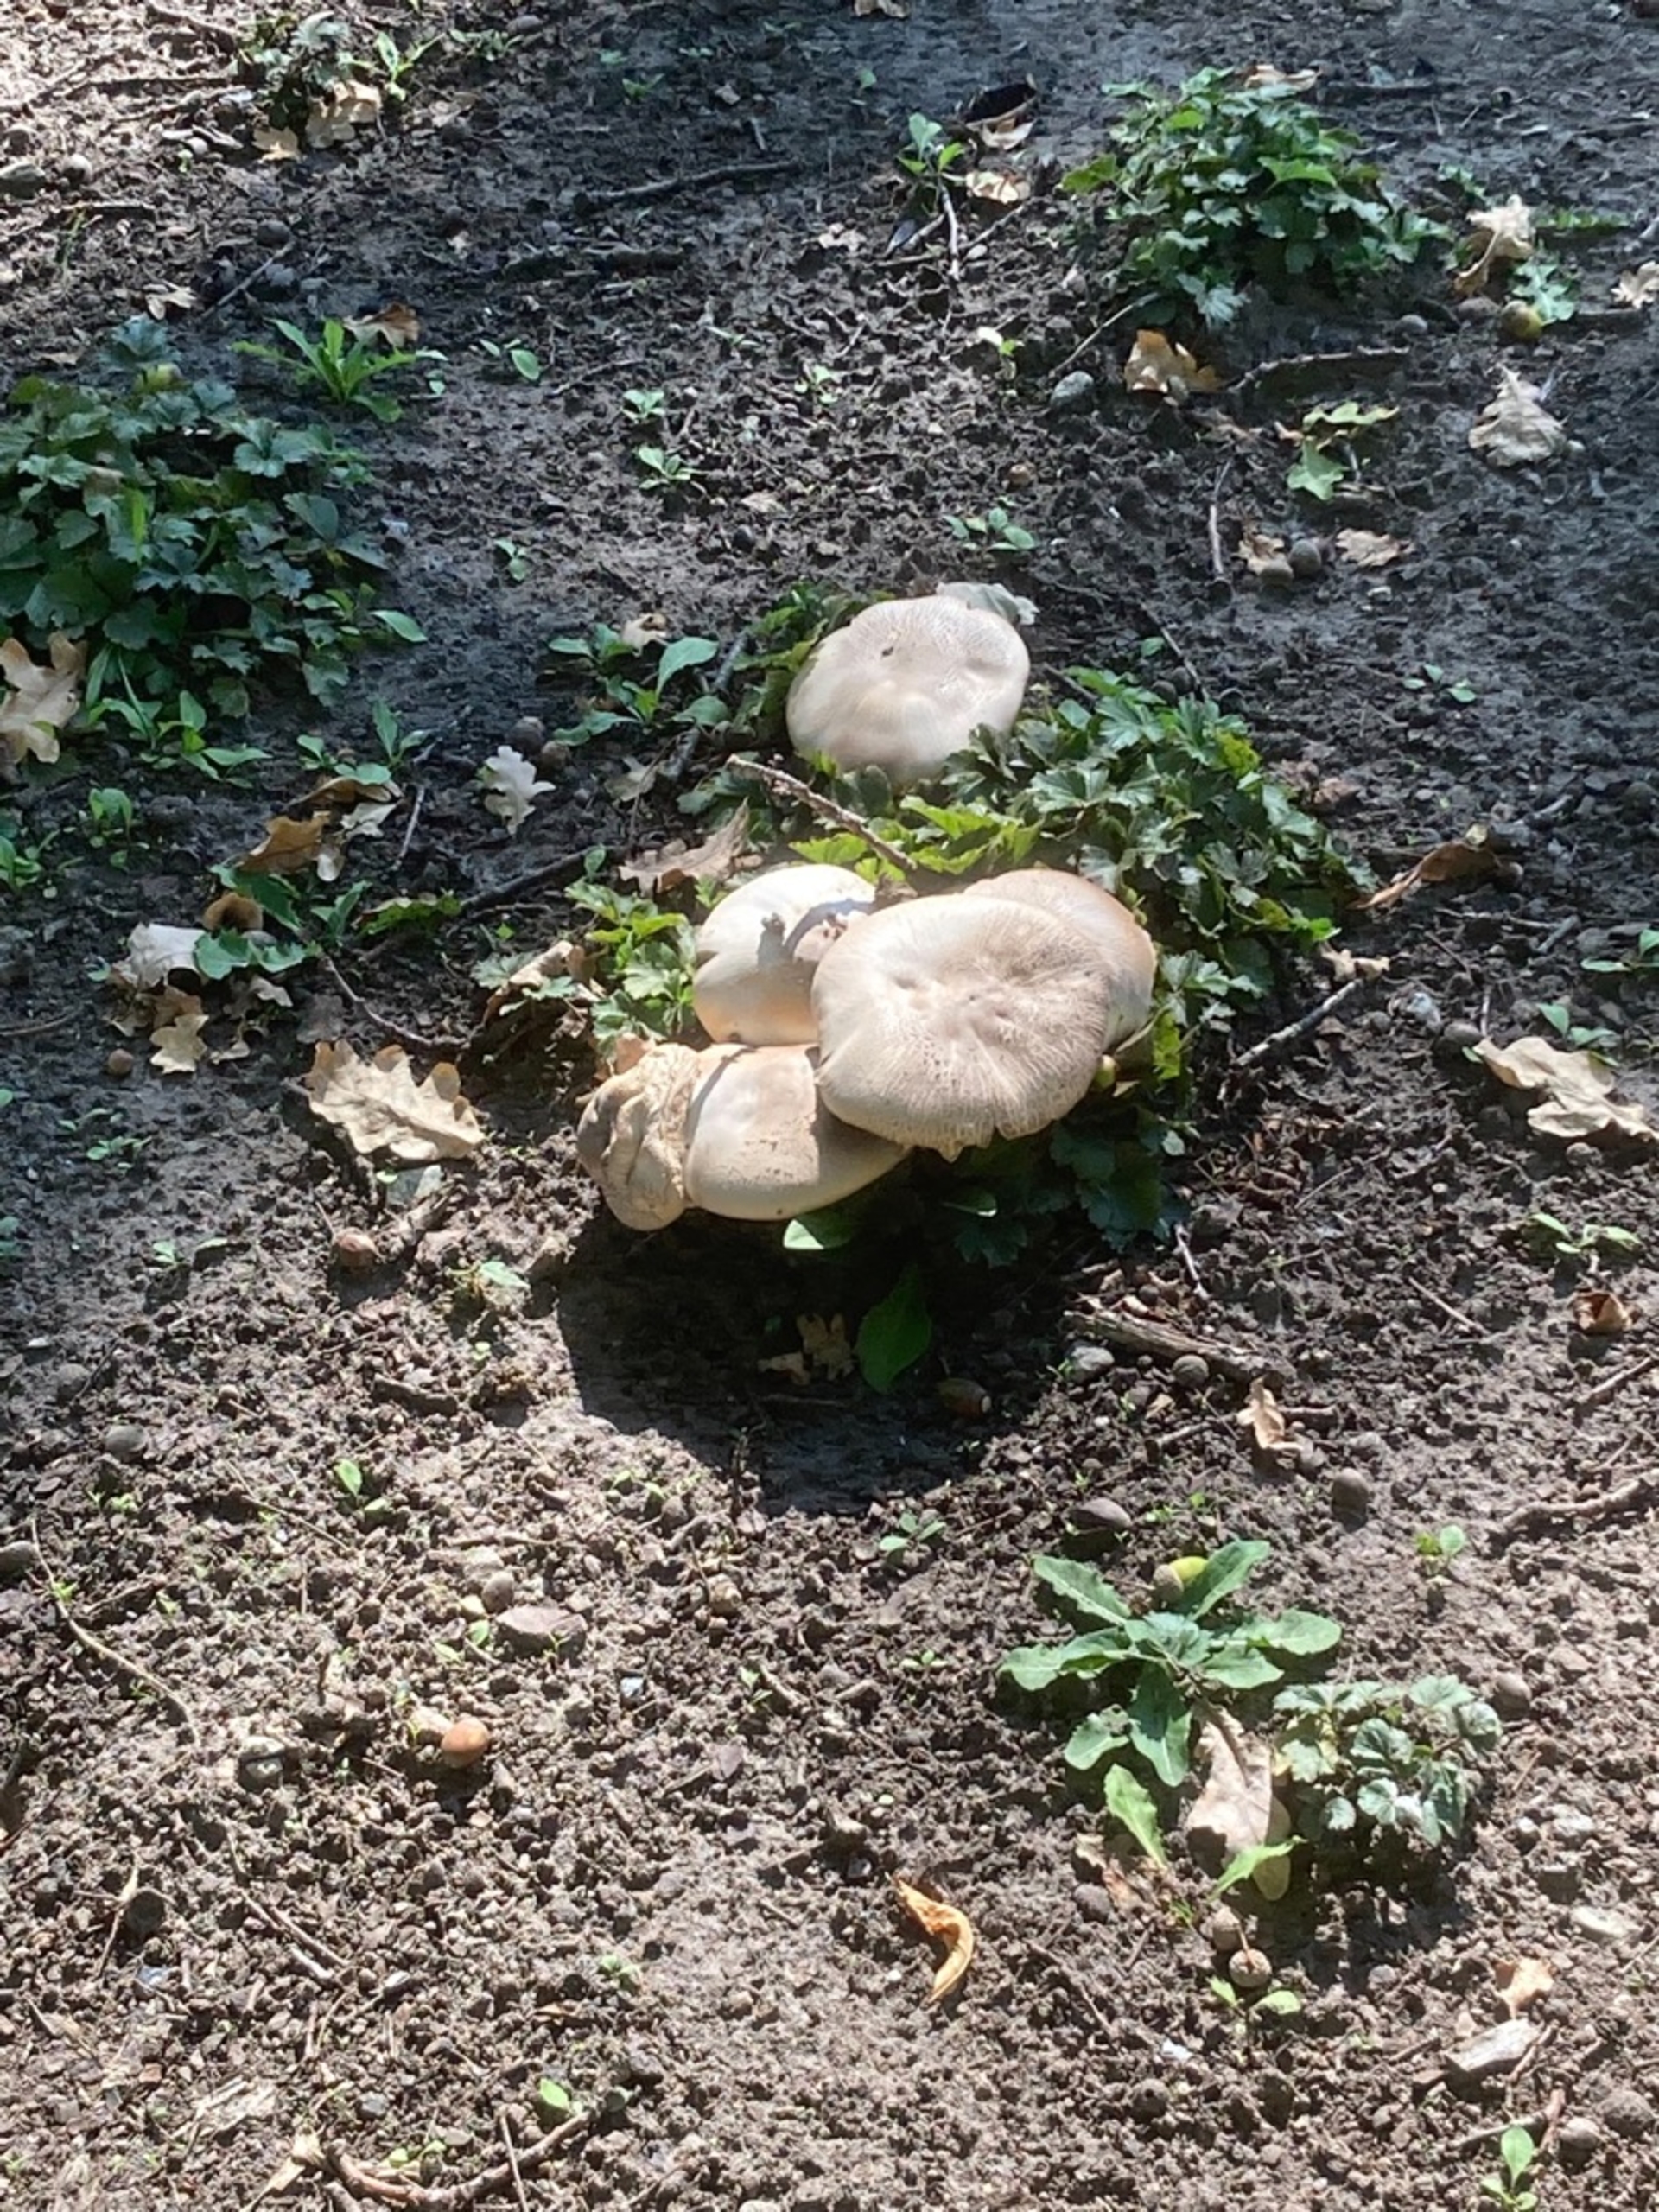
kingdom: Fungi
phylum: Basidiomycota
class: Agaricomycetes
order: Agaricales
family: Agaricaceae
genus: Agaricus
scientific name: Agaricus
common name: Champignon
